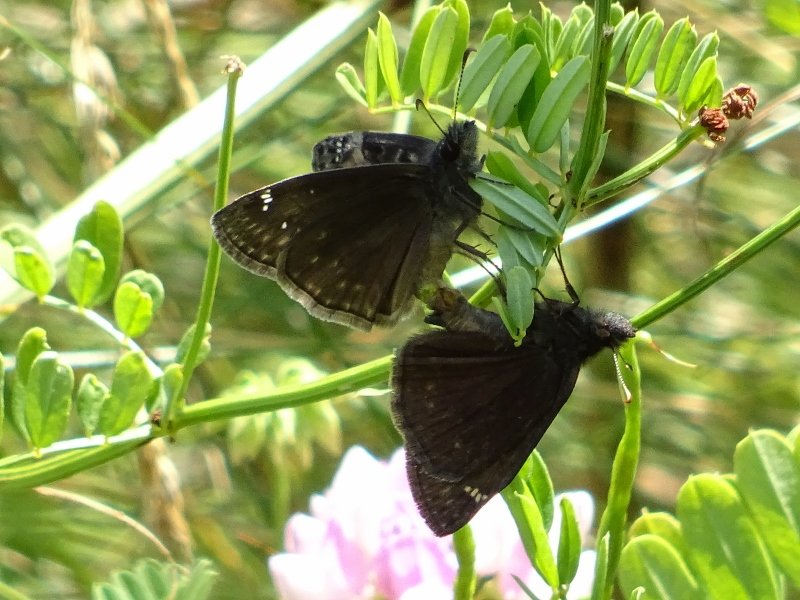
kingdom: Animalia
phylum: Arthropoda
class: Insecta
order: Lepidoptera
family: Hesperiidae
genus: Gesta
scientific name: Gesta
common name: Wild Indigo Duskywing
